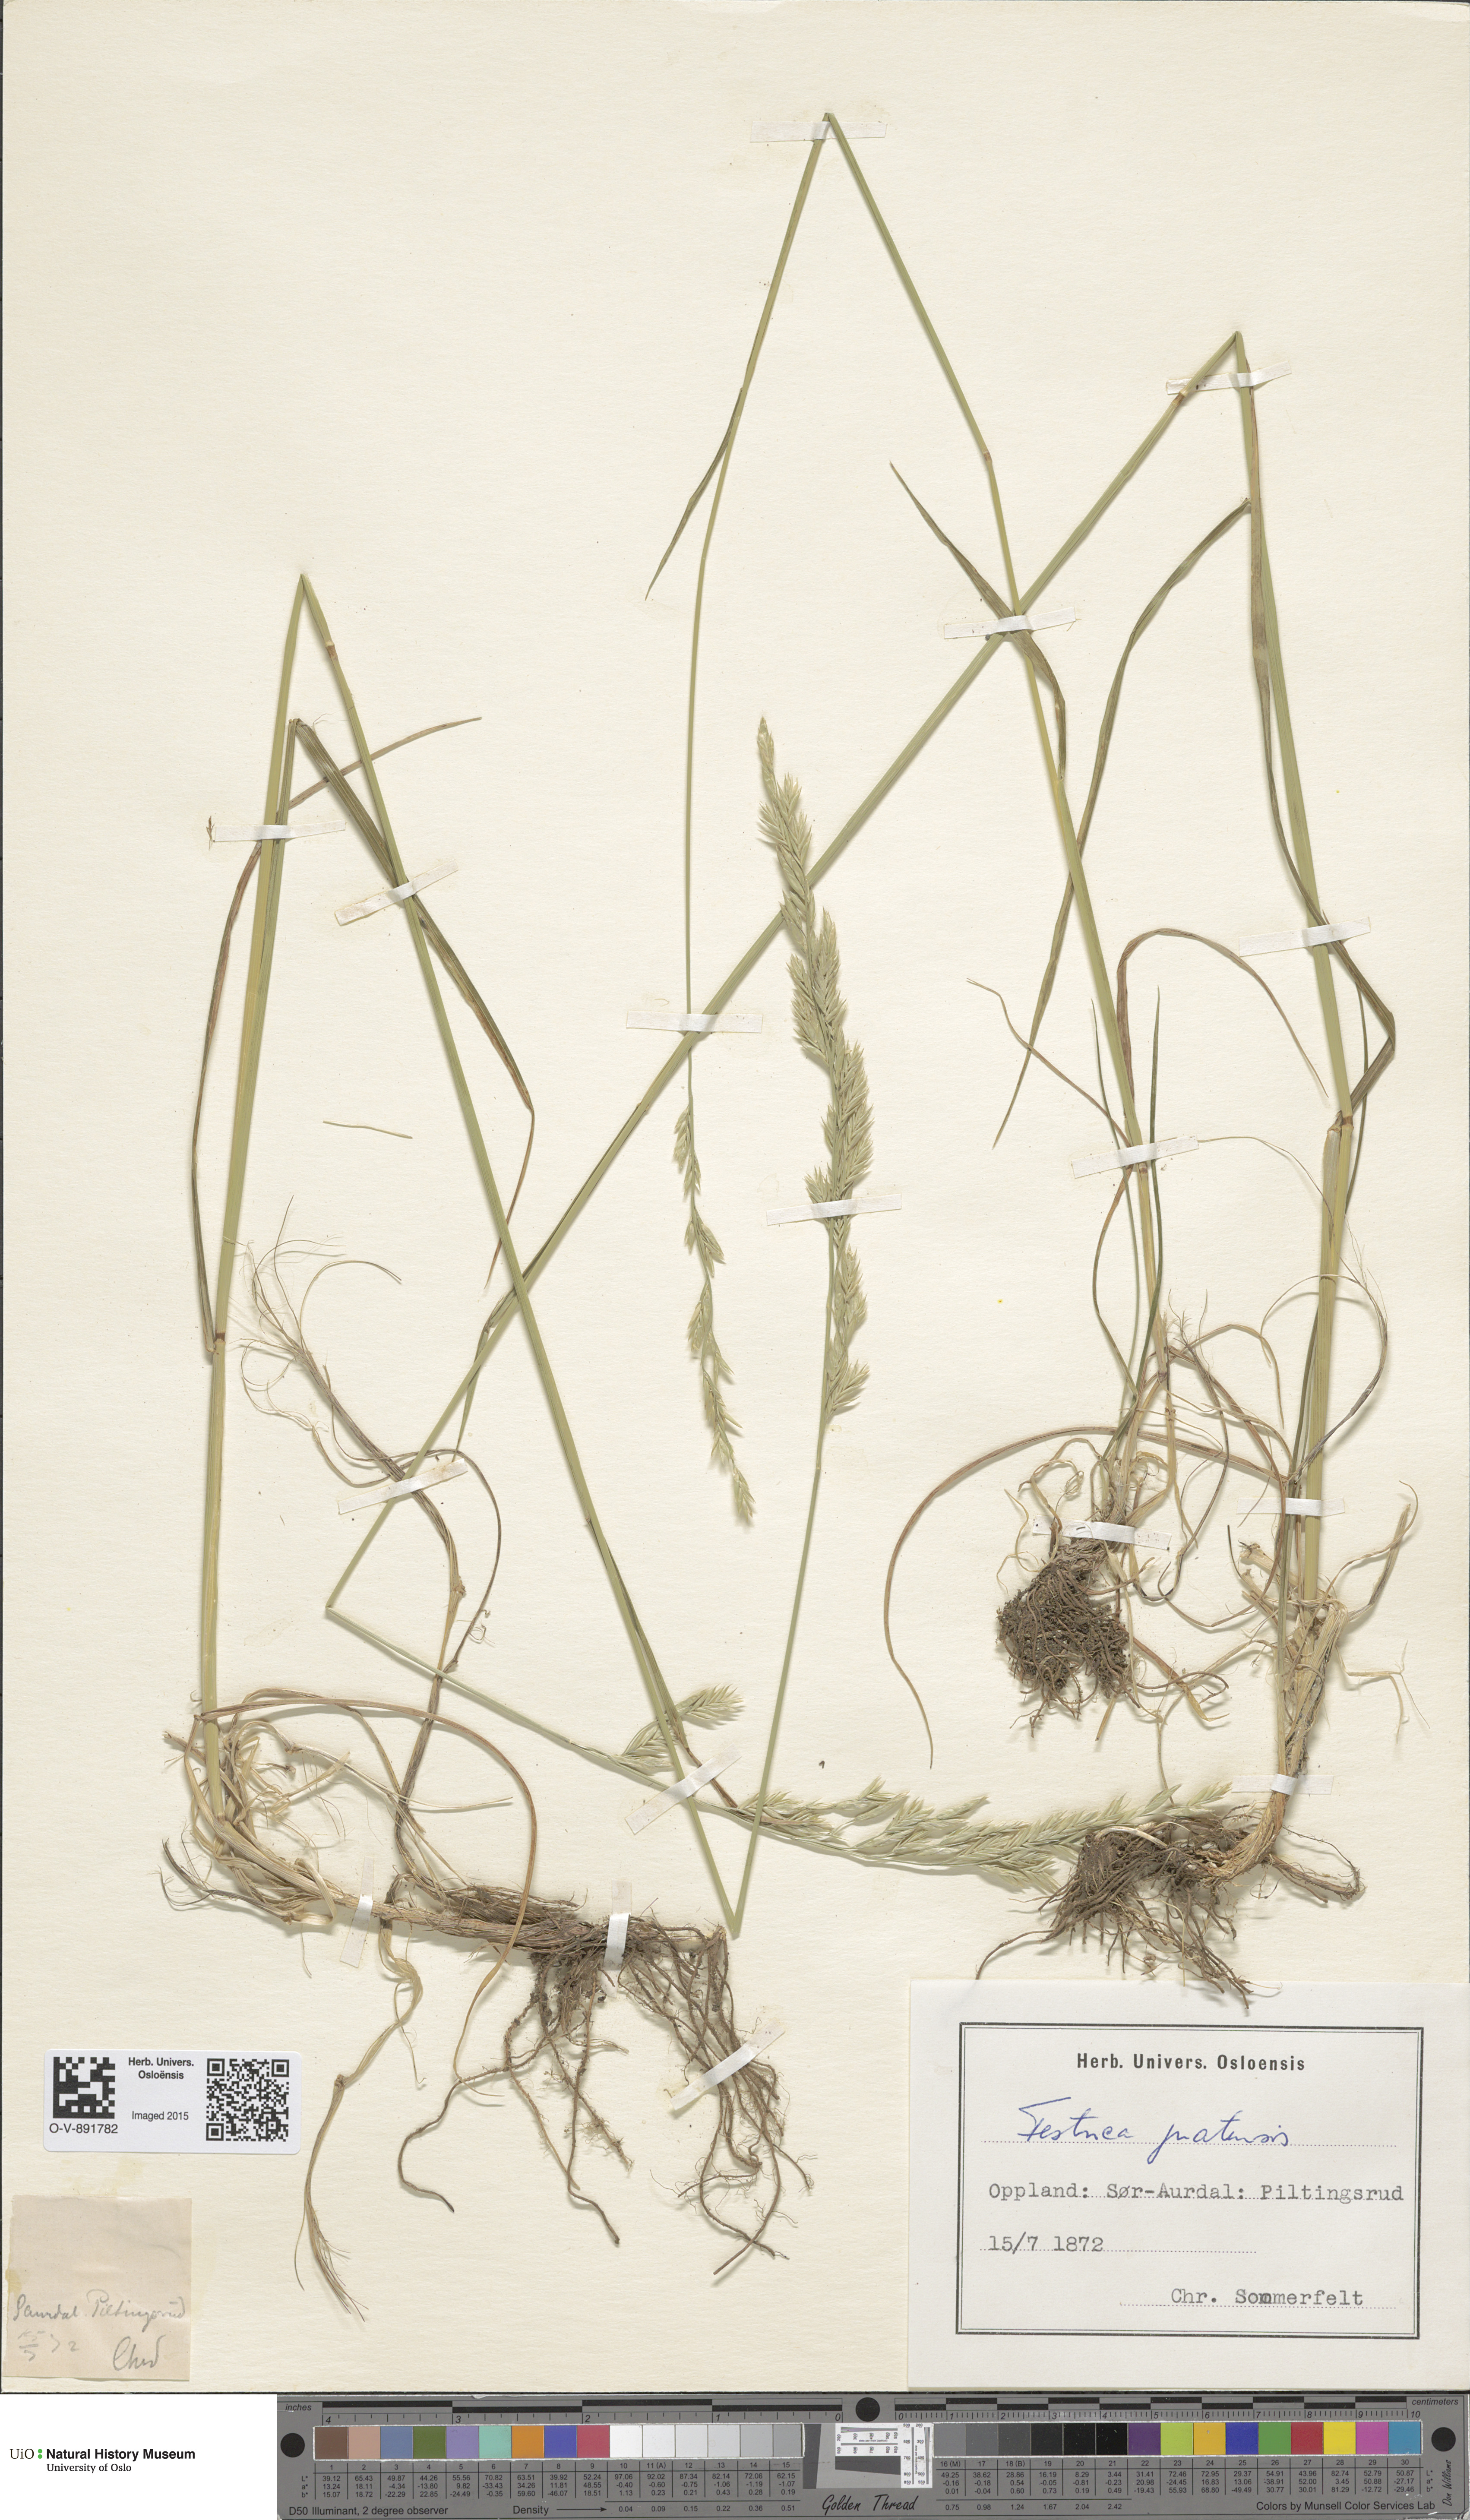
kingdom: Plantae
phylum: Tracheophyta
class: Liliopsida
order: Poales
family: Poaceae
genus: Lolium
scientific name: Lolium pratense
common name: Dover grass
